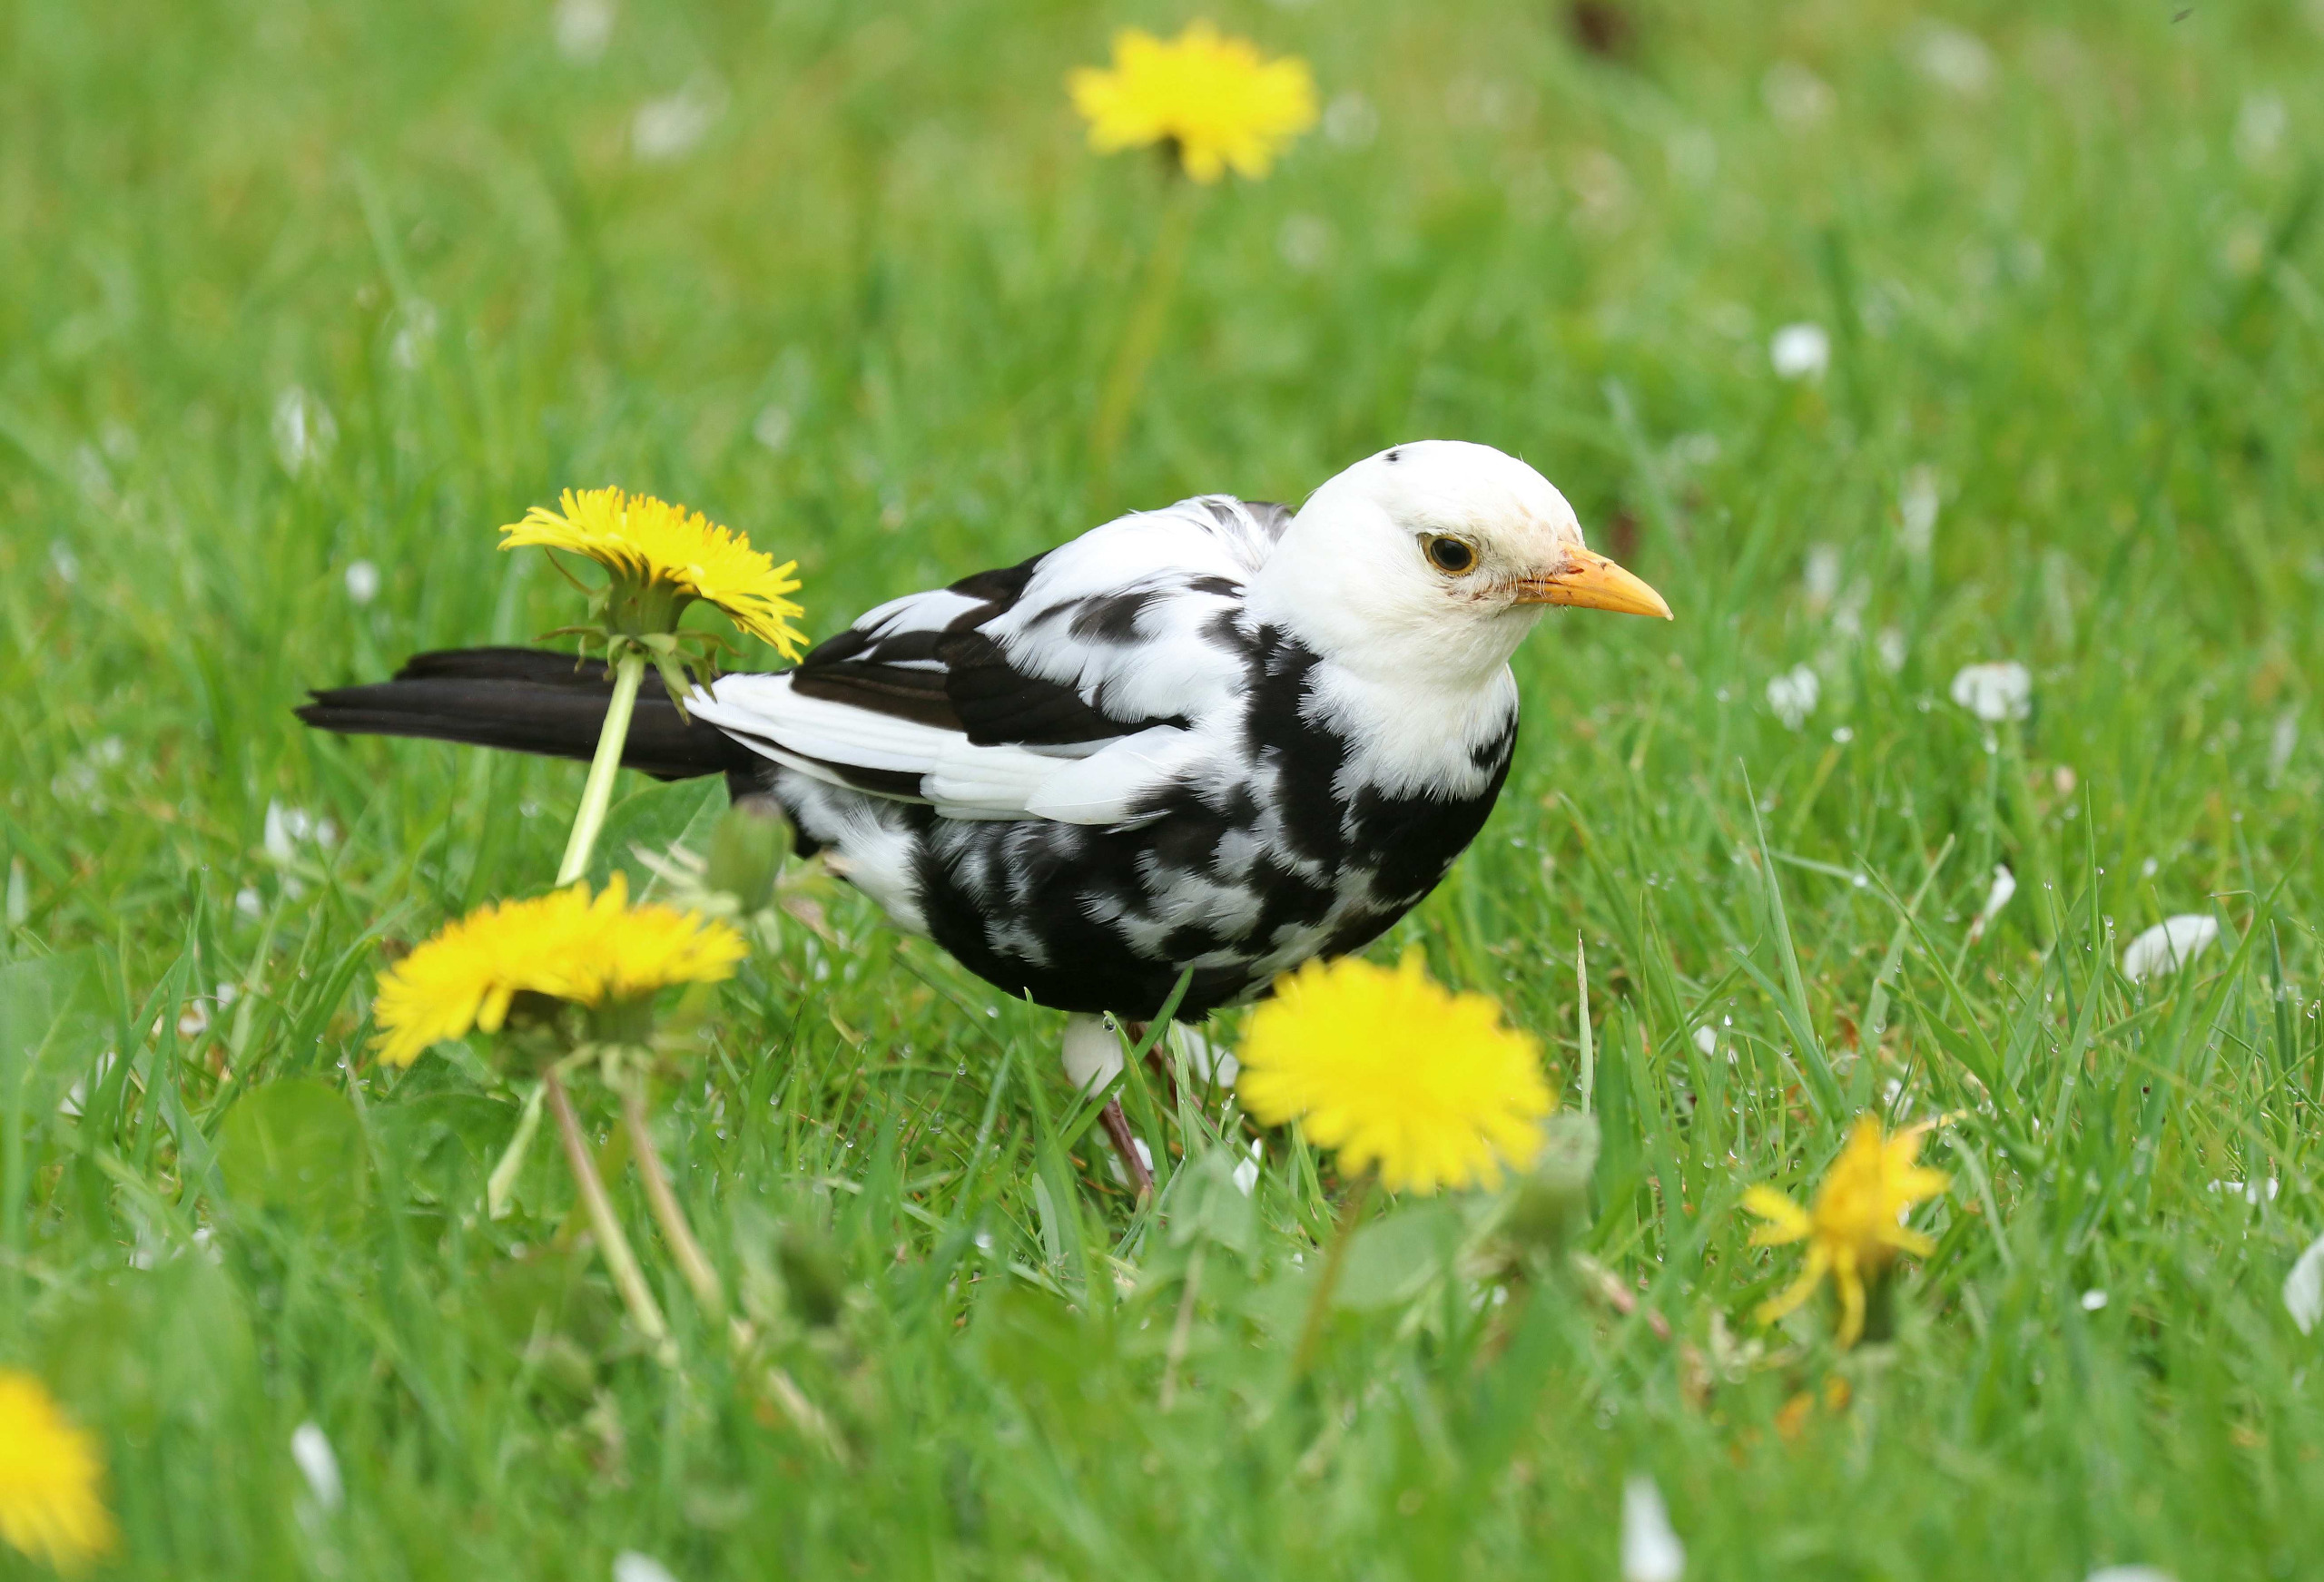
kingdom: Animalia
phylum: Chordata
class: Aves
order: Passeriformes
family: Turdidae
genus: Turdus
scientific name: Turdus merula
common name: Solsort
